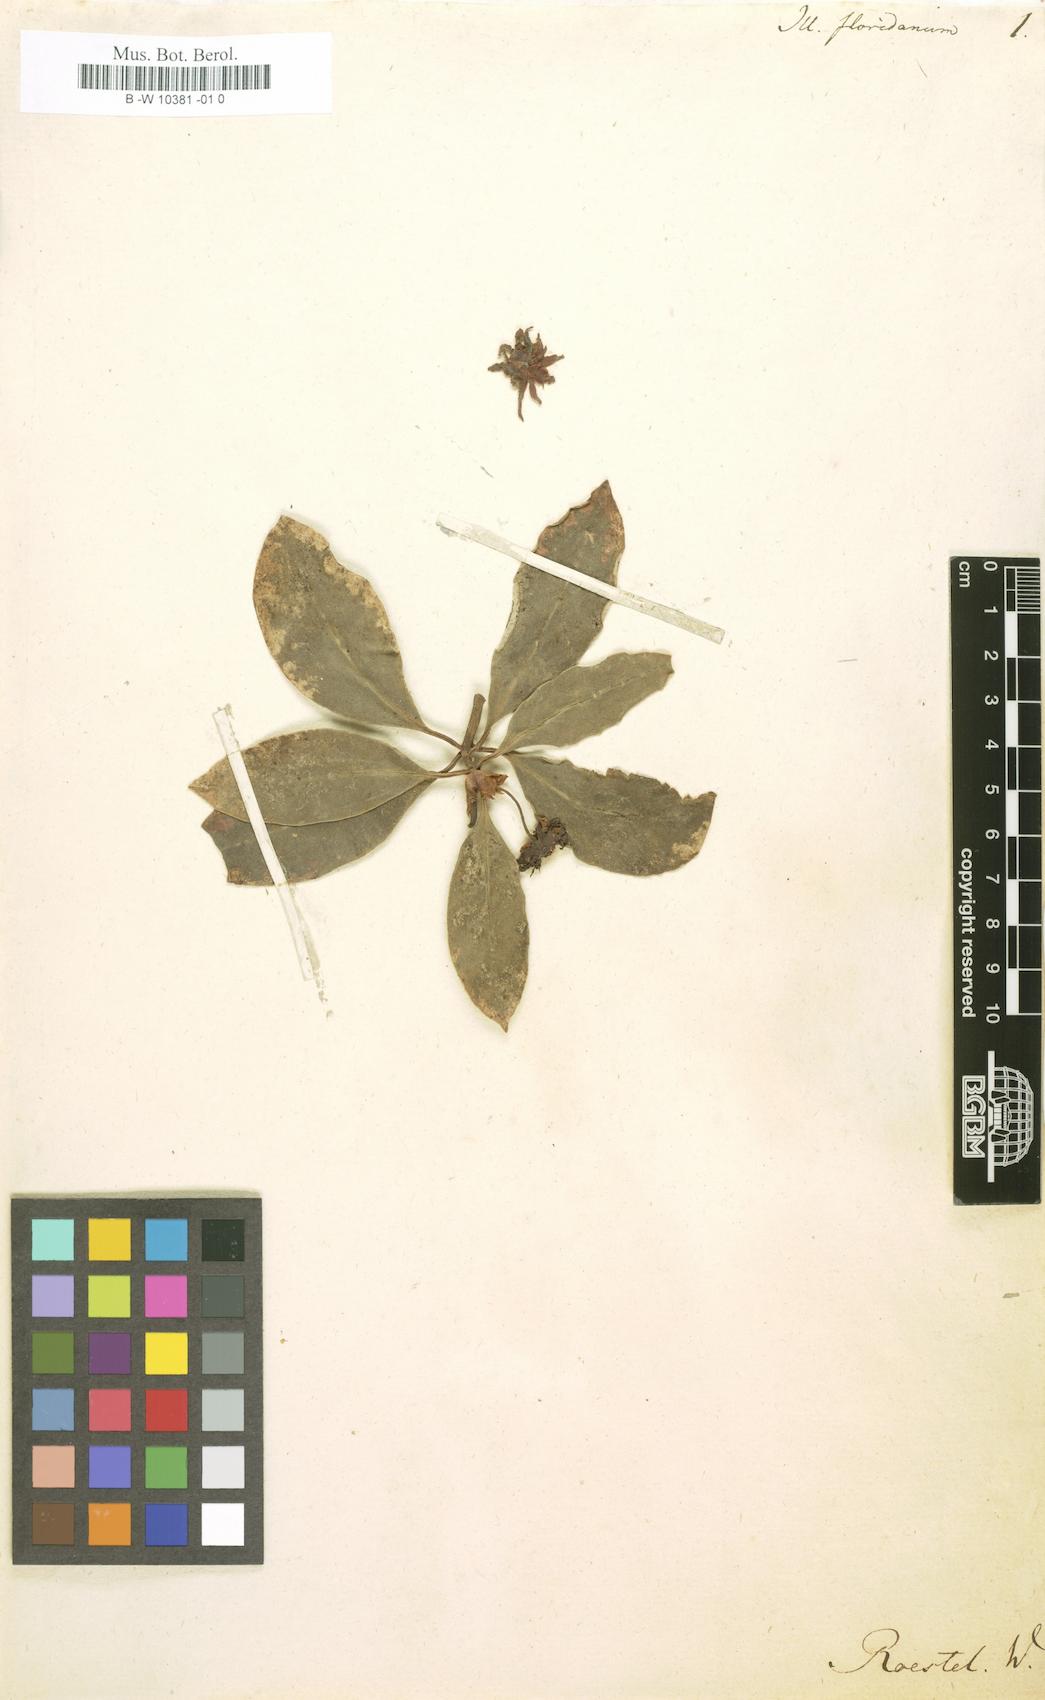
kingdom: Plantae
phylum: Tracheophyta
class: Magnoliopsida
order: Austrobaileyales
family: Schisandraceae
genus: Illicium
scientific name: Illicium floridanum
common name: Florida anisetree
